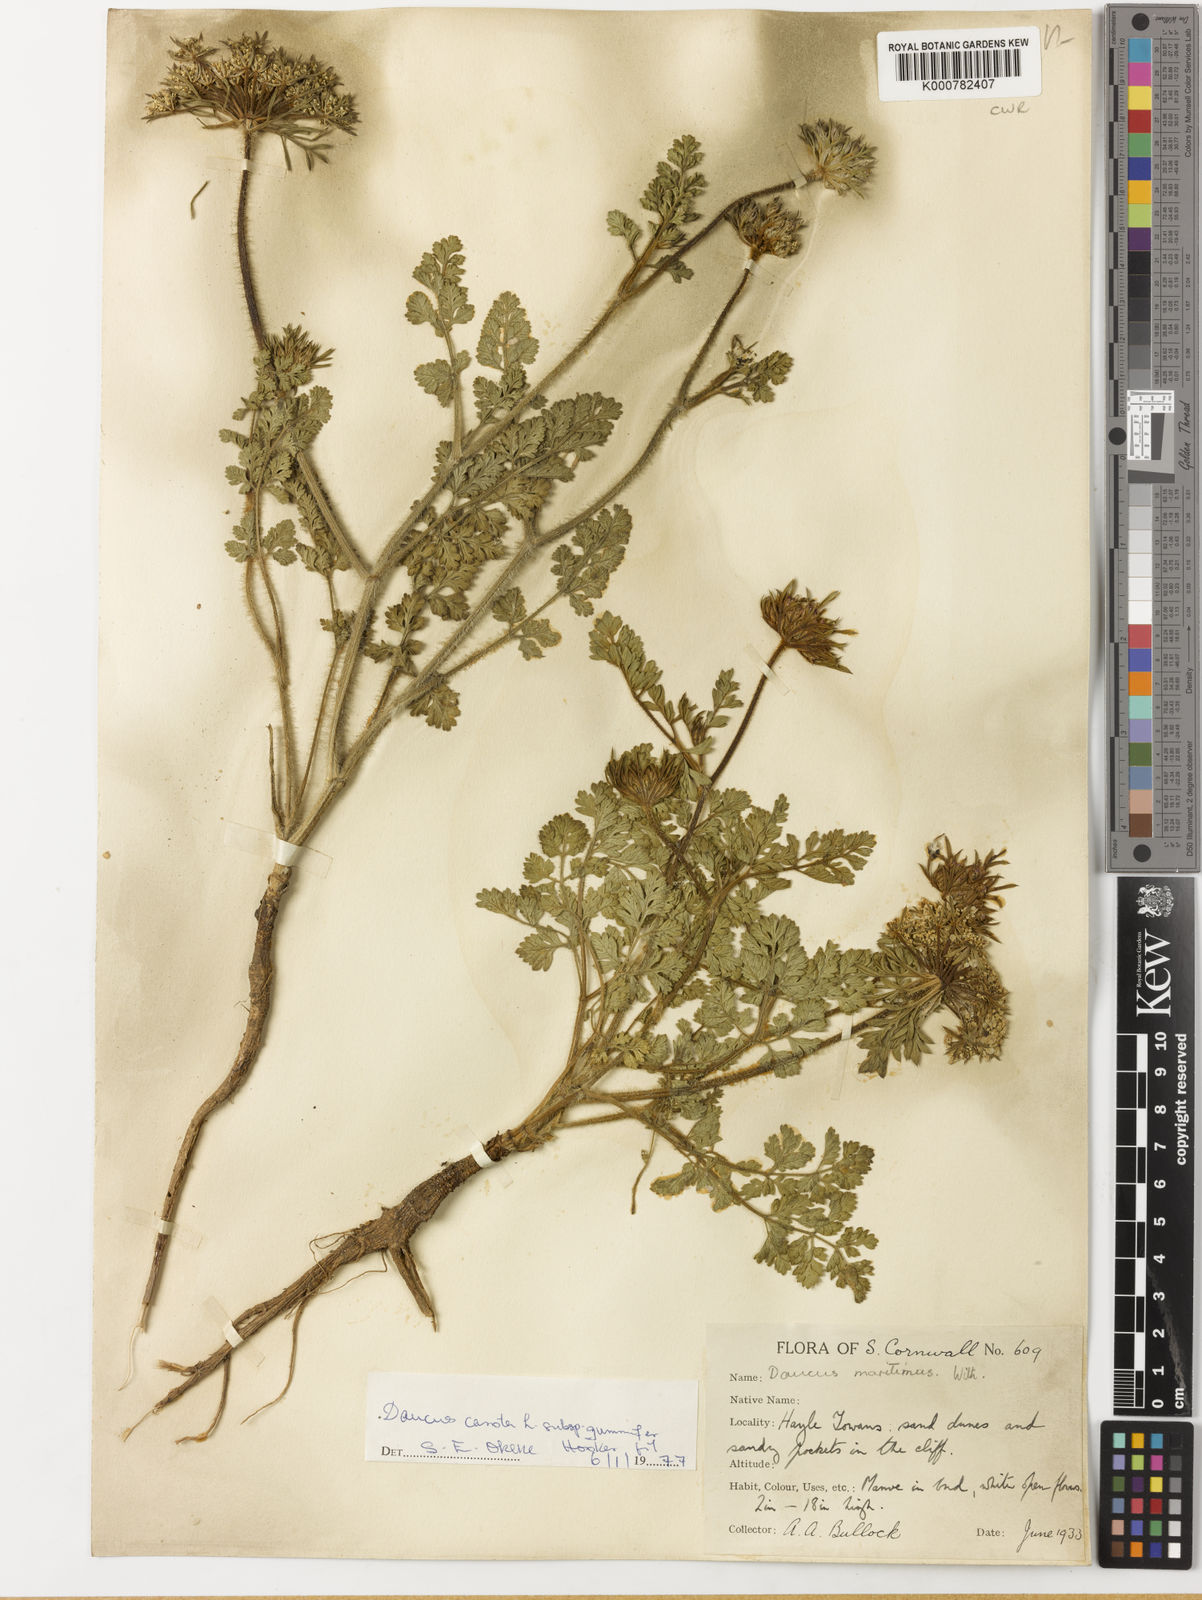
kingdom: Plantae
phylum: Tracheophyta
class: Magnoliopsida
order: Apiales
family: Apiaceae
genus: Daucus
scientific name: Daucus carota
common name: Wild carrot
